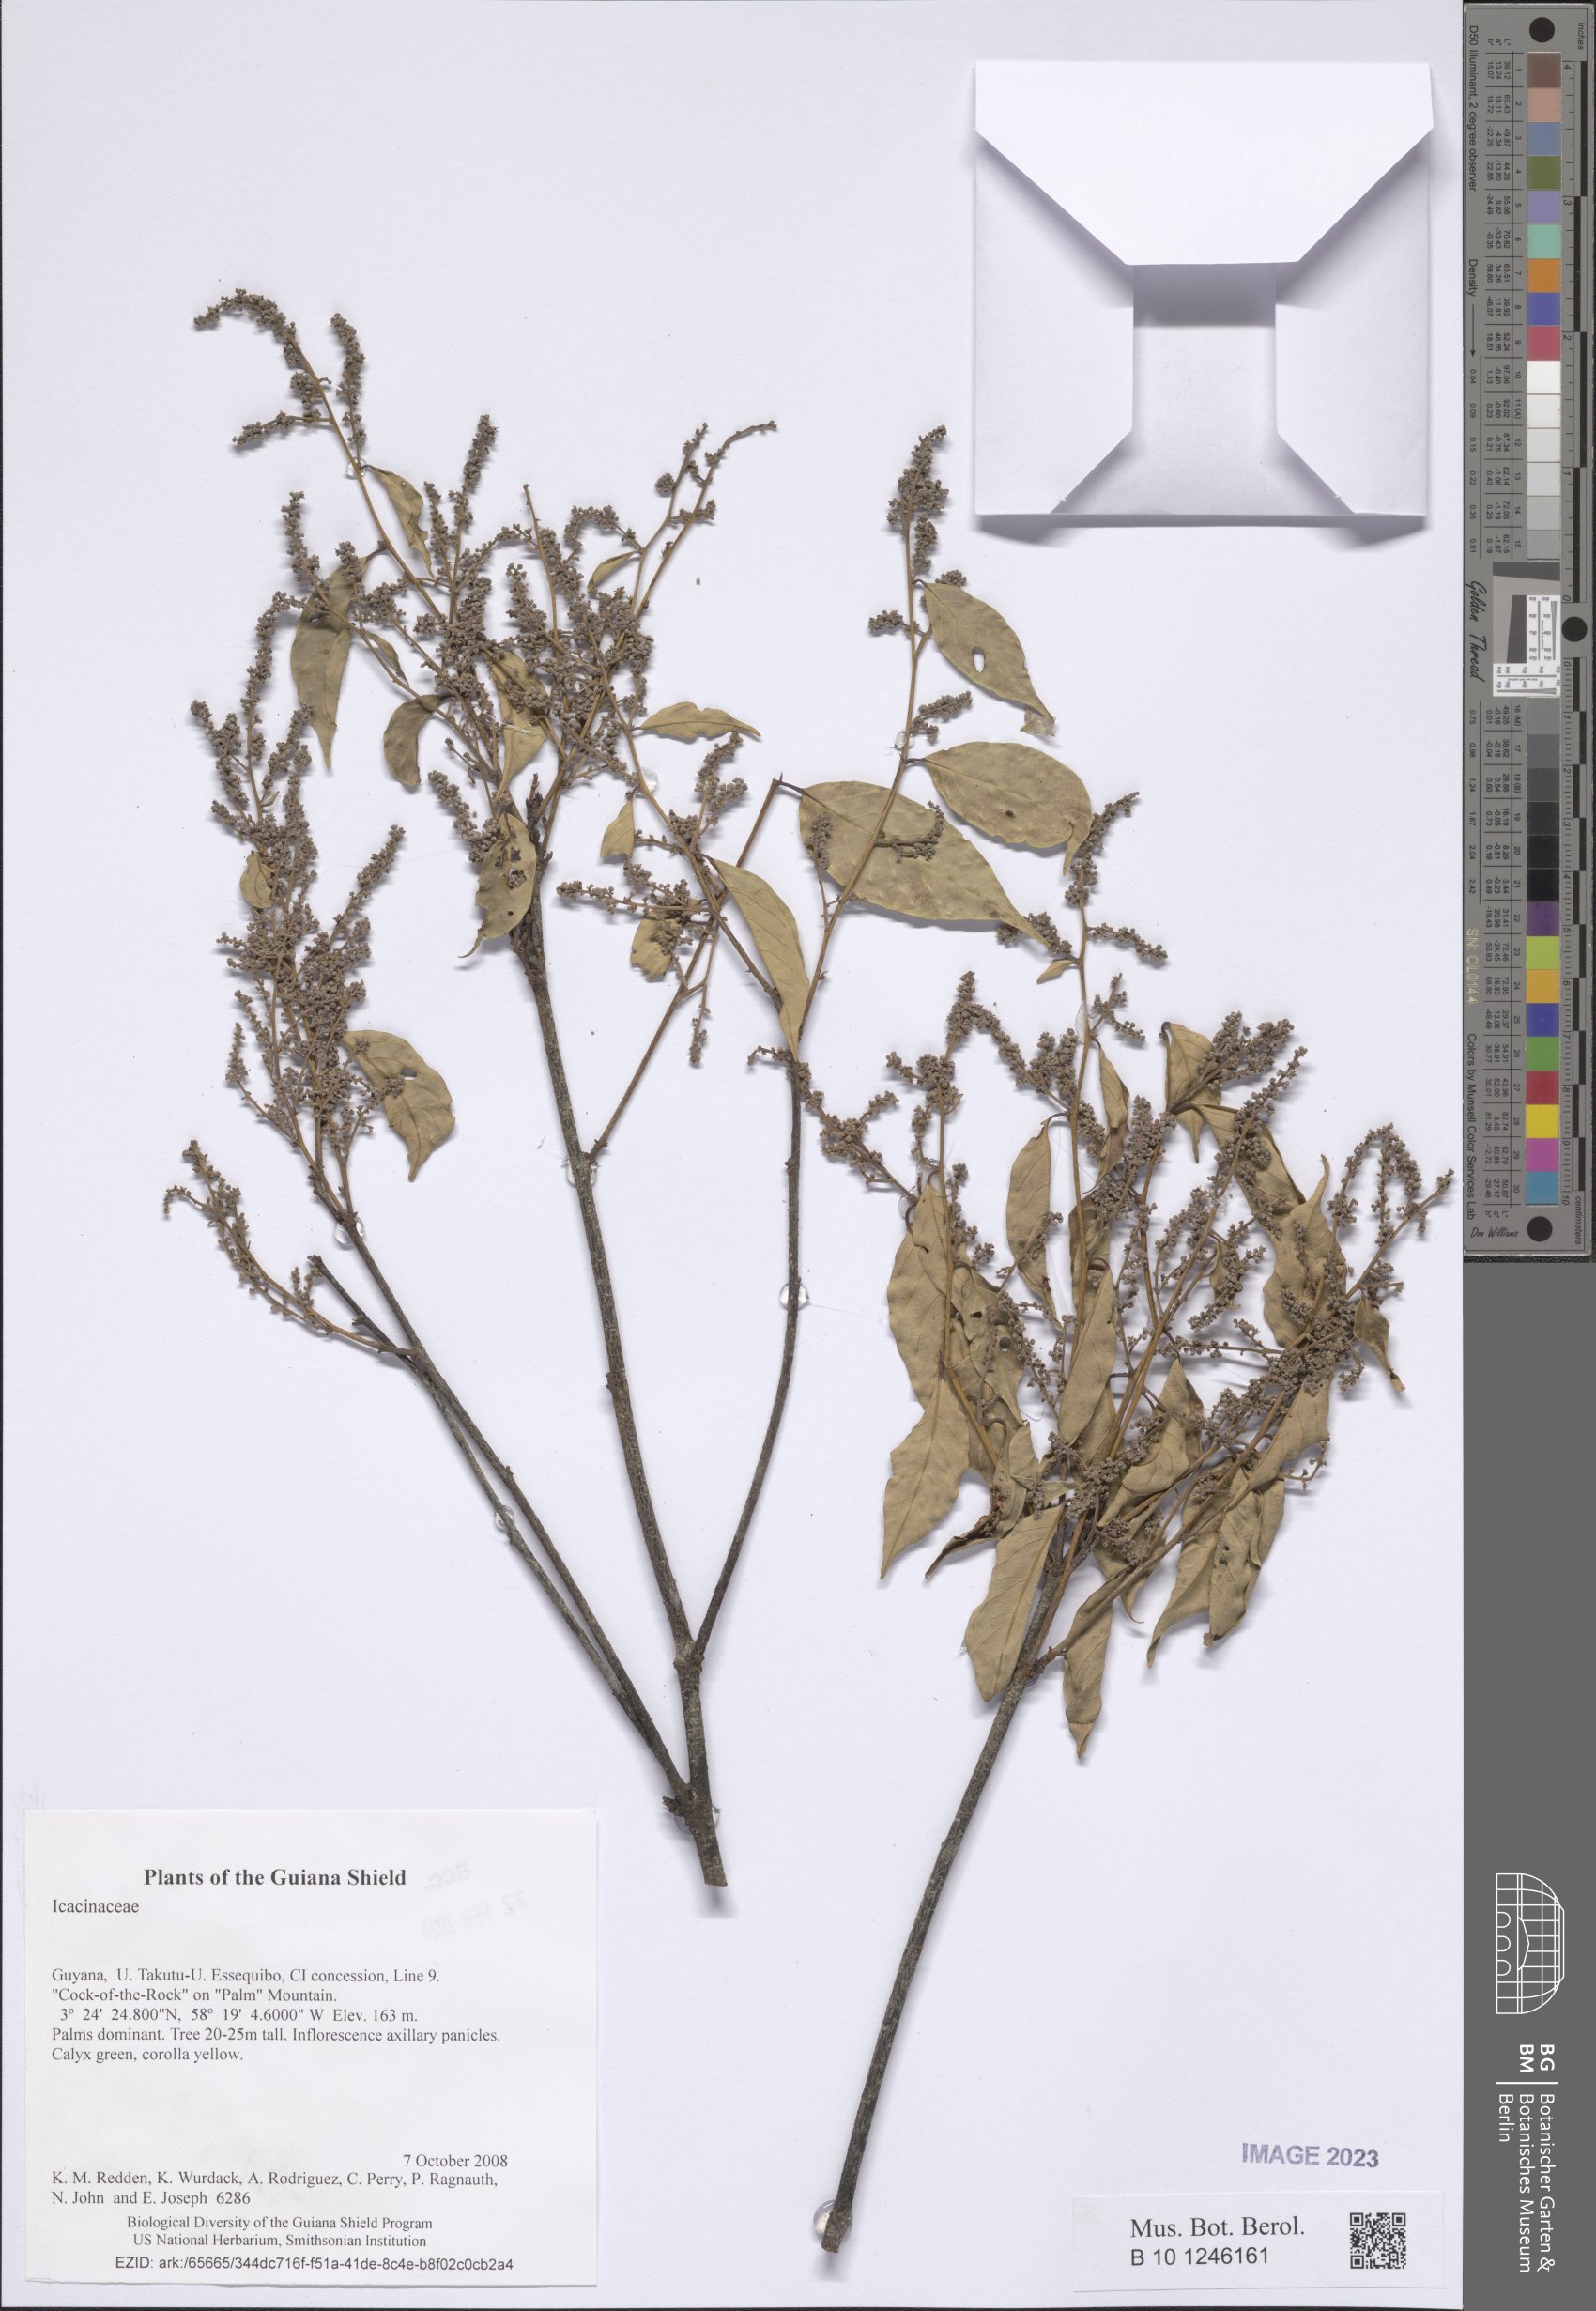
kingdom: Plantae
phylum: Tracheophyta
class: Magnoliopsida
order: Icacinales
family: Icacinaceae
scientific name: Icacinaceae
